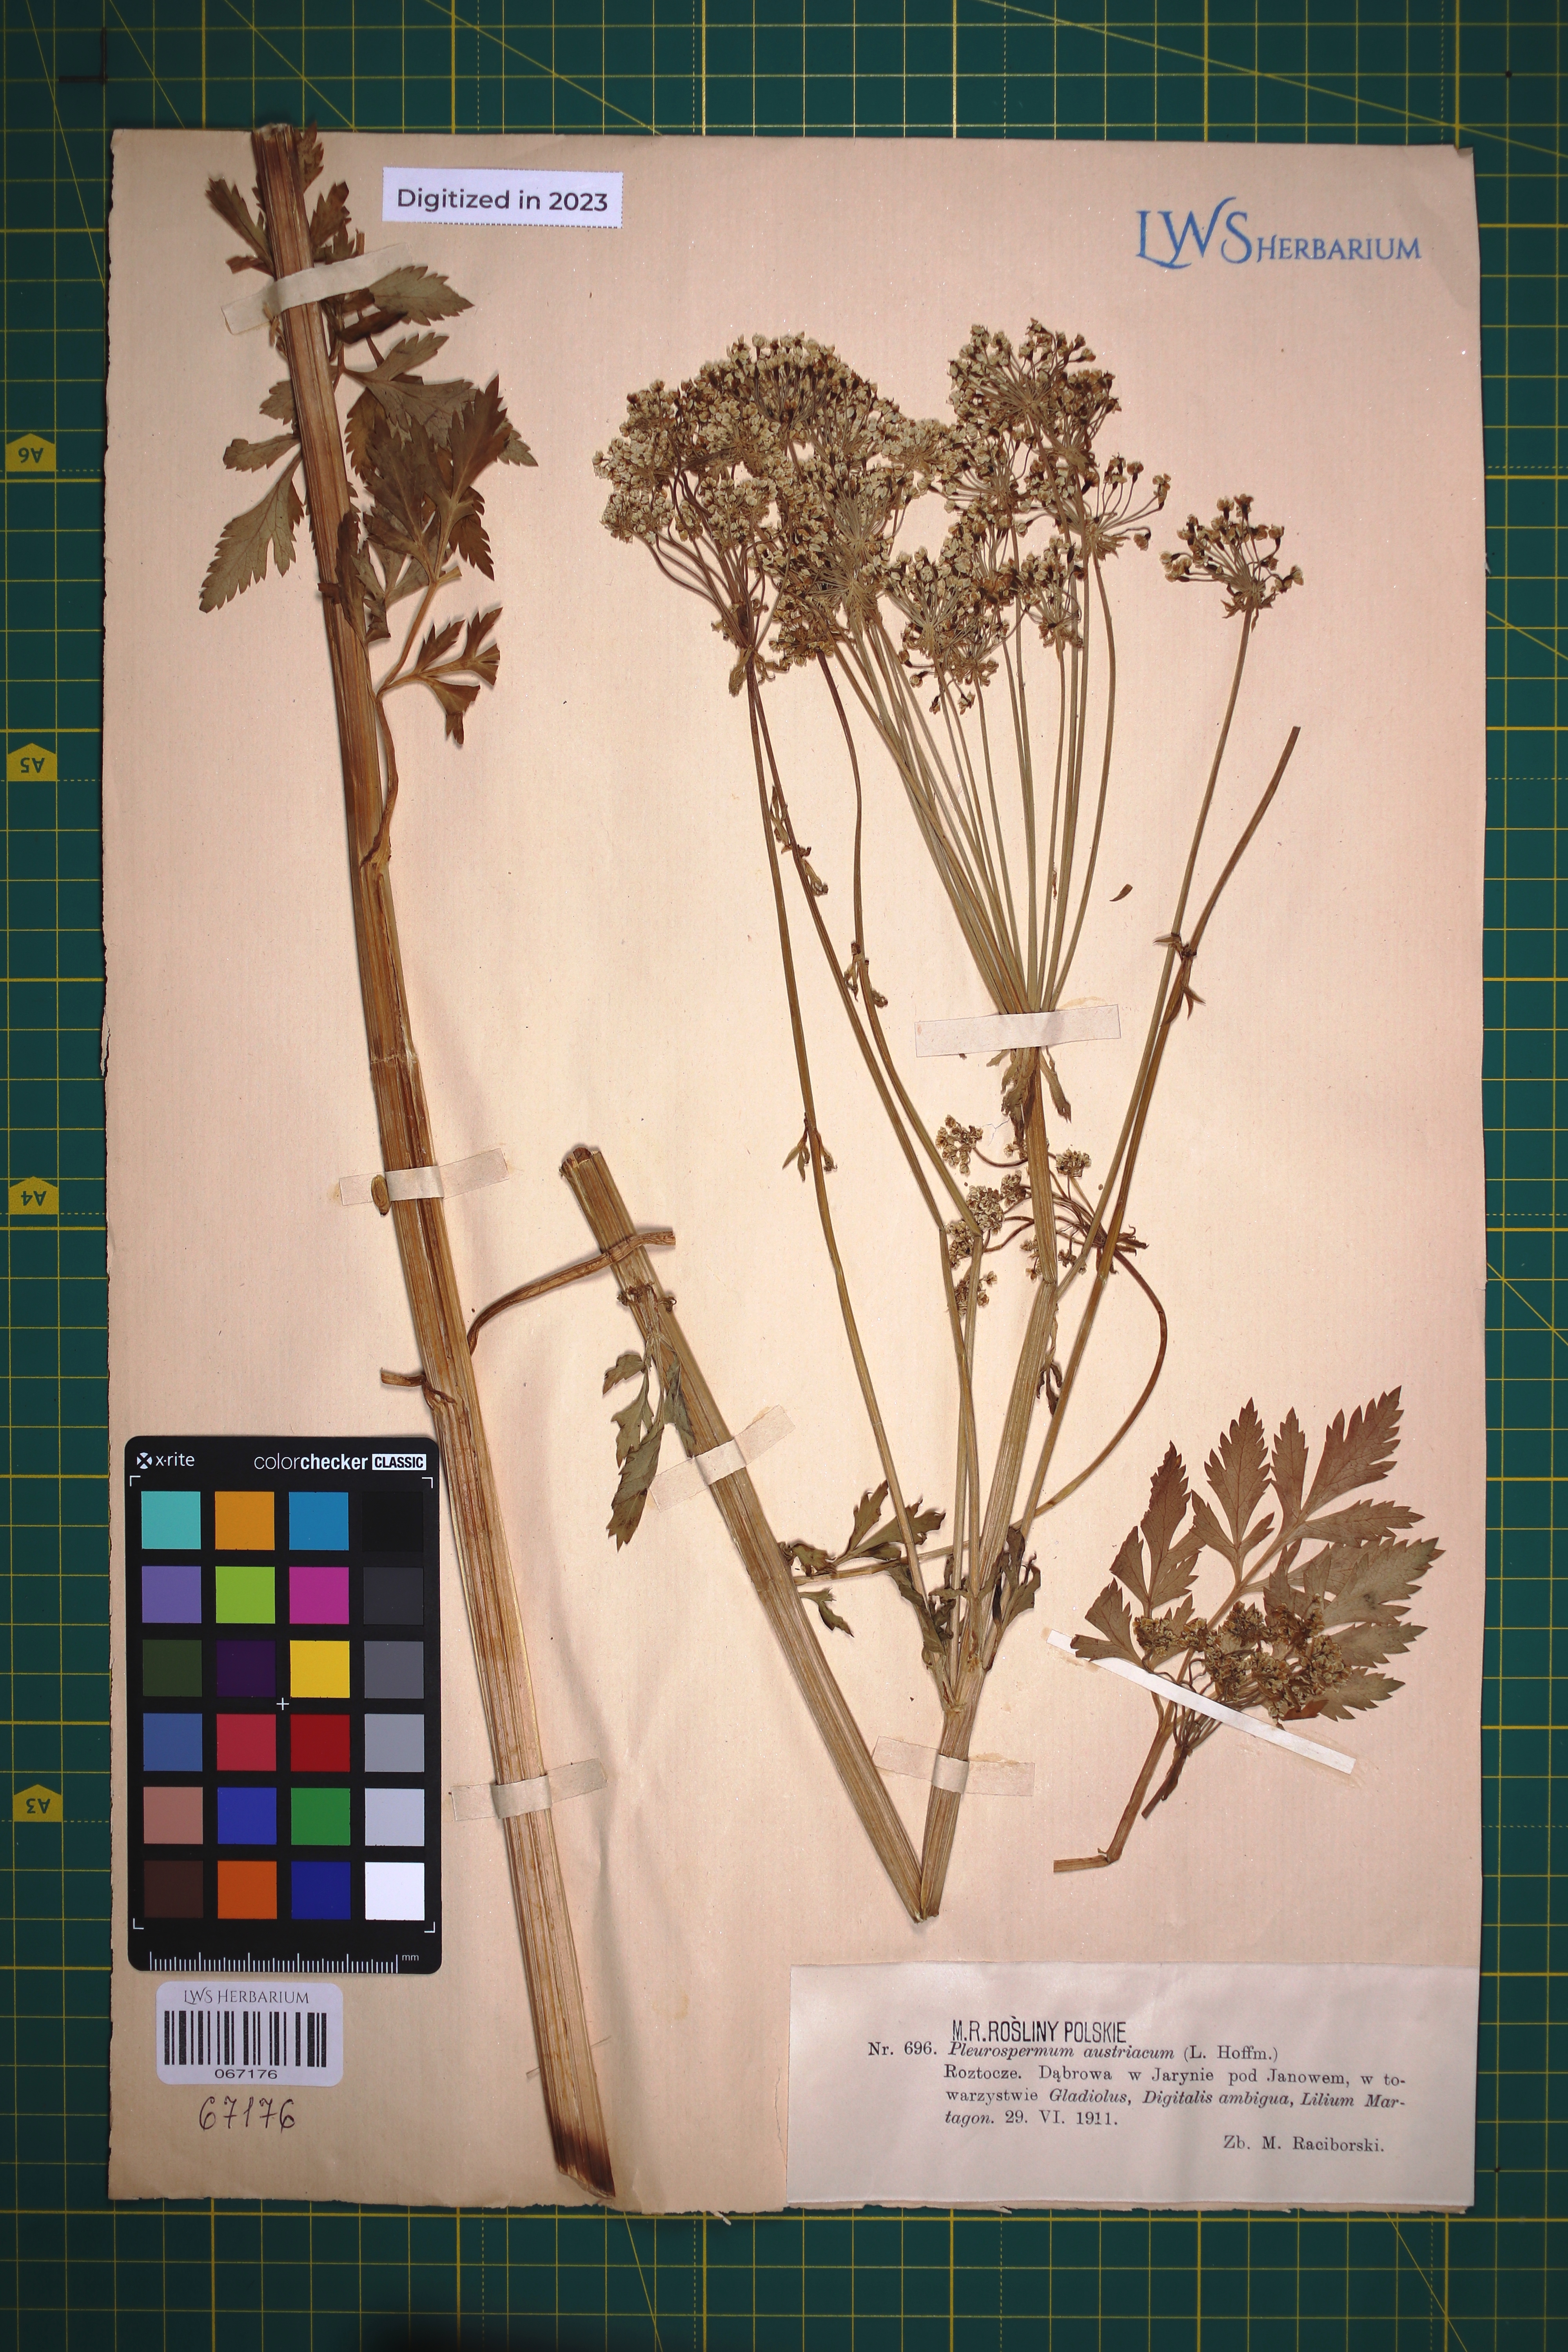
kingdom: Plantae
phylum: Tracheophyta
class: Magnoliopsida
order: Apiales
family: Apiaceae
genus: Pleurospermum
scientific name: Pleurospermum austriacum
